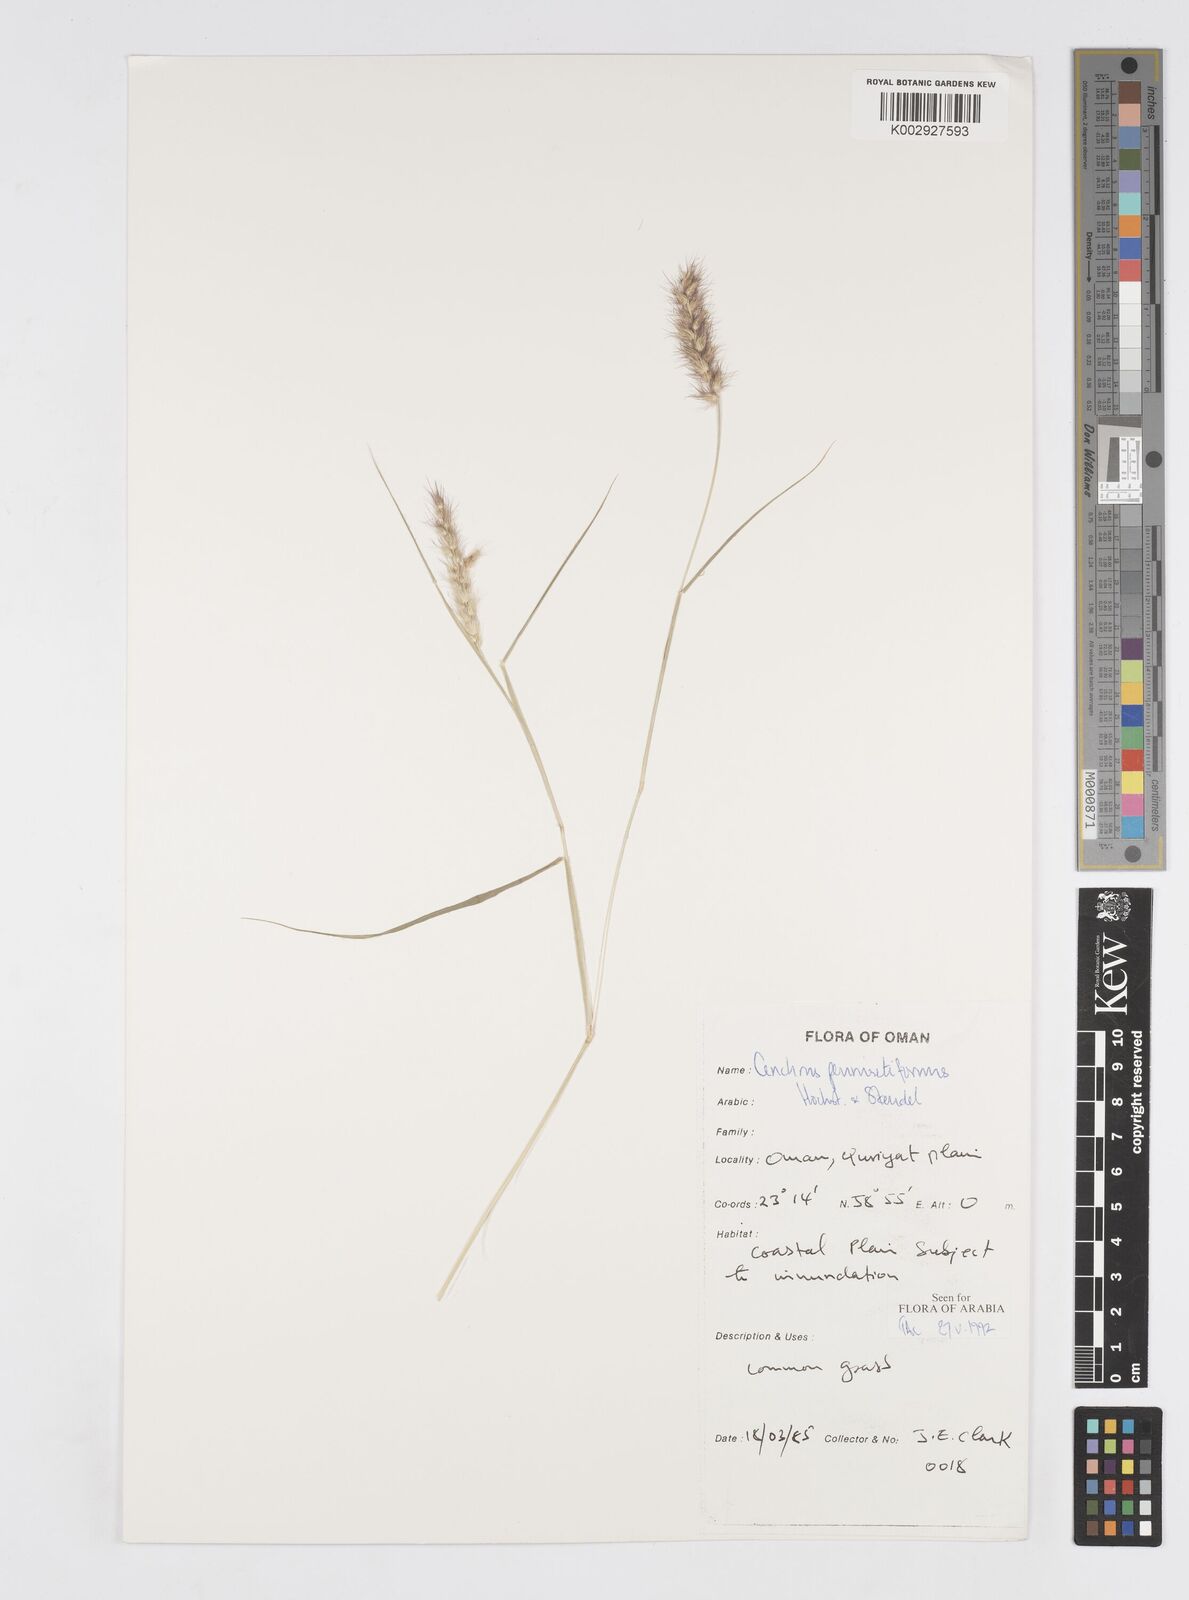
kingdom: Plantae
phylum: Tracheophyta
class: Liliopsida
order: Poales
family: Poaceae
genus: Cenchrus
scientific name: Cenchrus pennisetiformis
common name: Cloncurry
